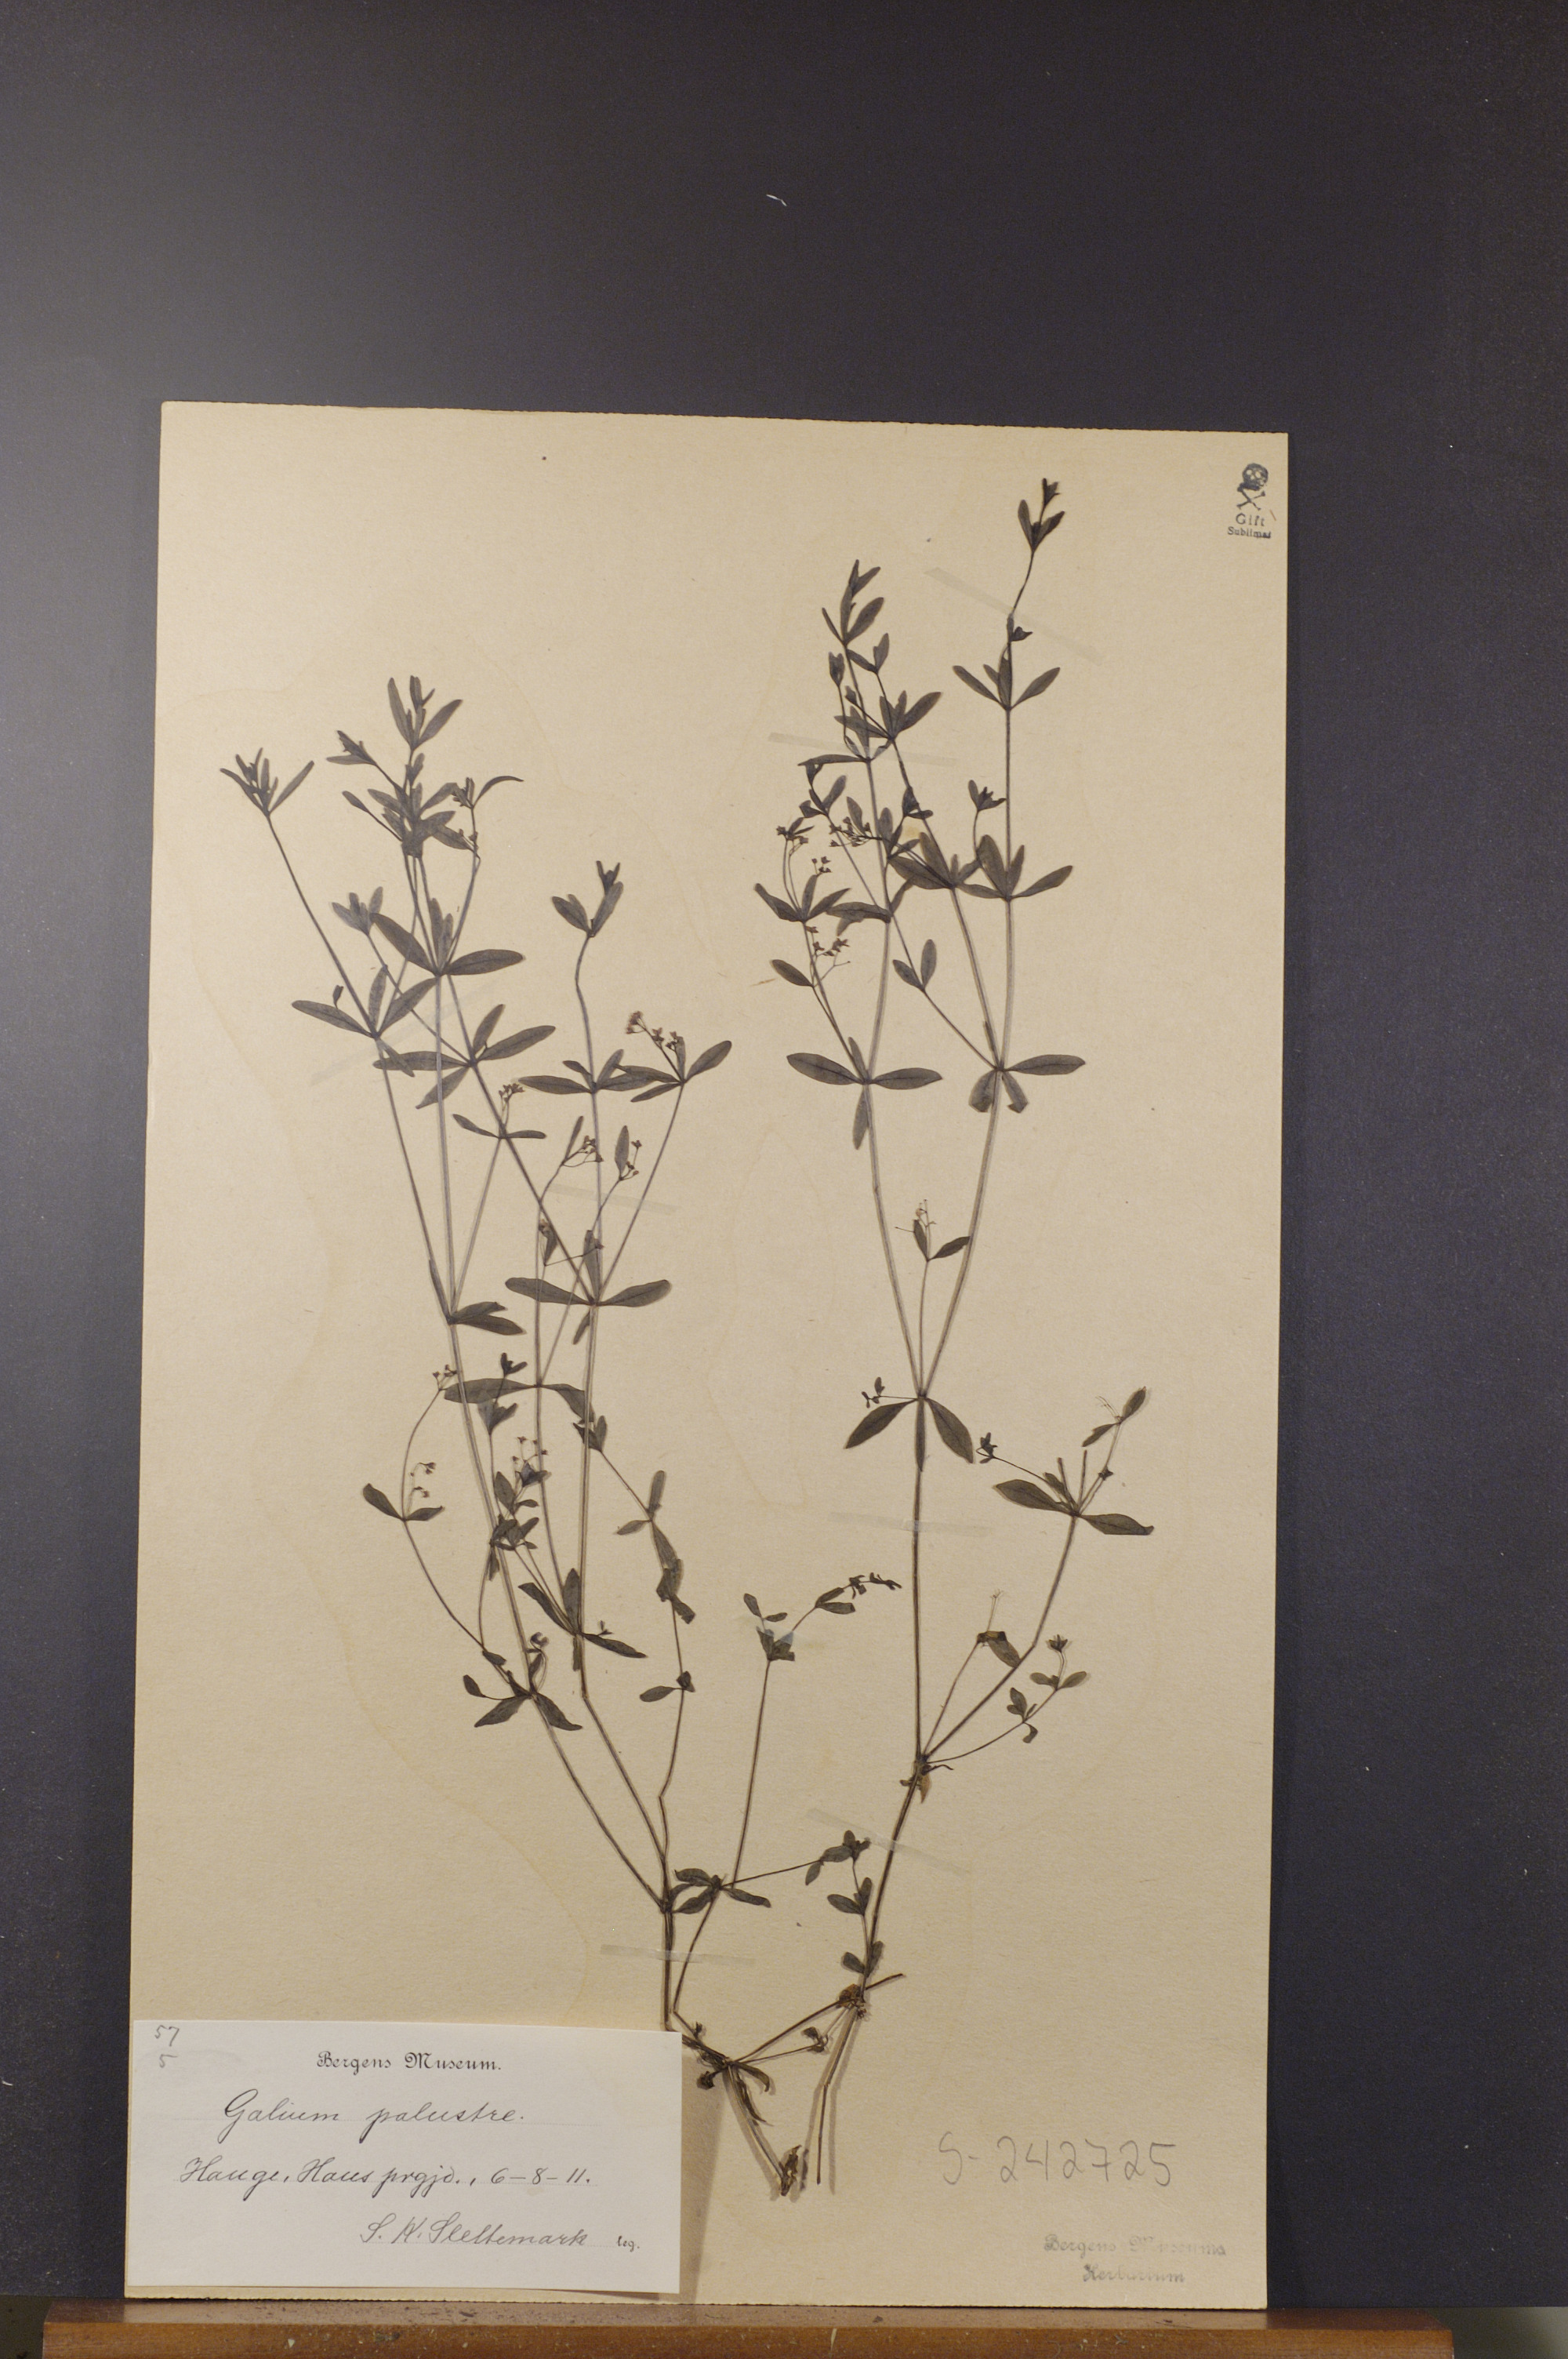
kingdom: Plantae
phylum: Tracheophyta
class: Magnoliopsida
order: Gentianales
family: Rubiaceae
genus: Galium
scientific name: Galium palustre
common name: Common marsh-bedstraw
